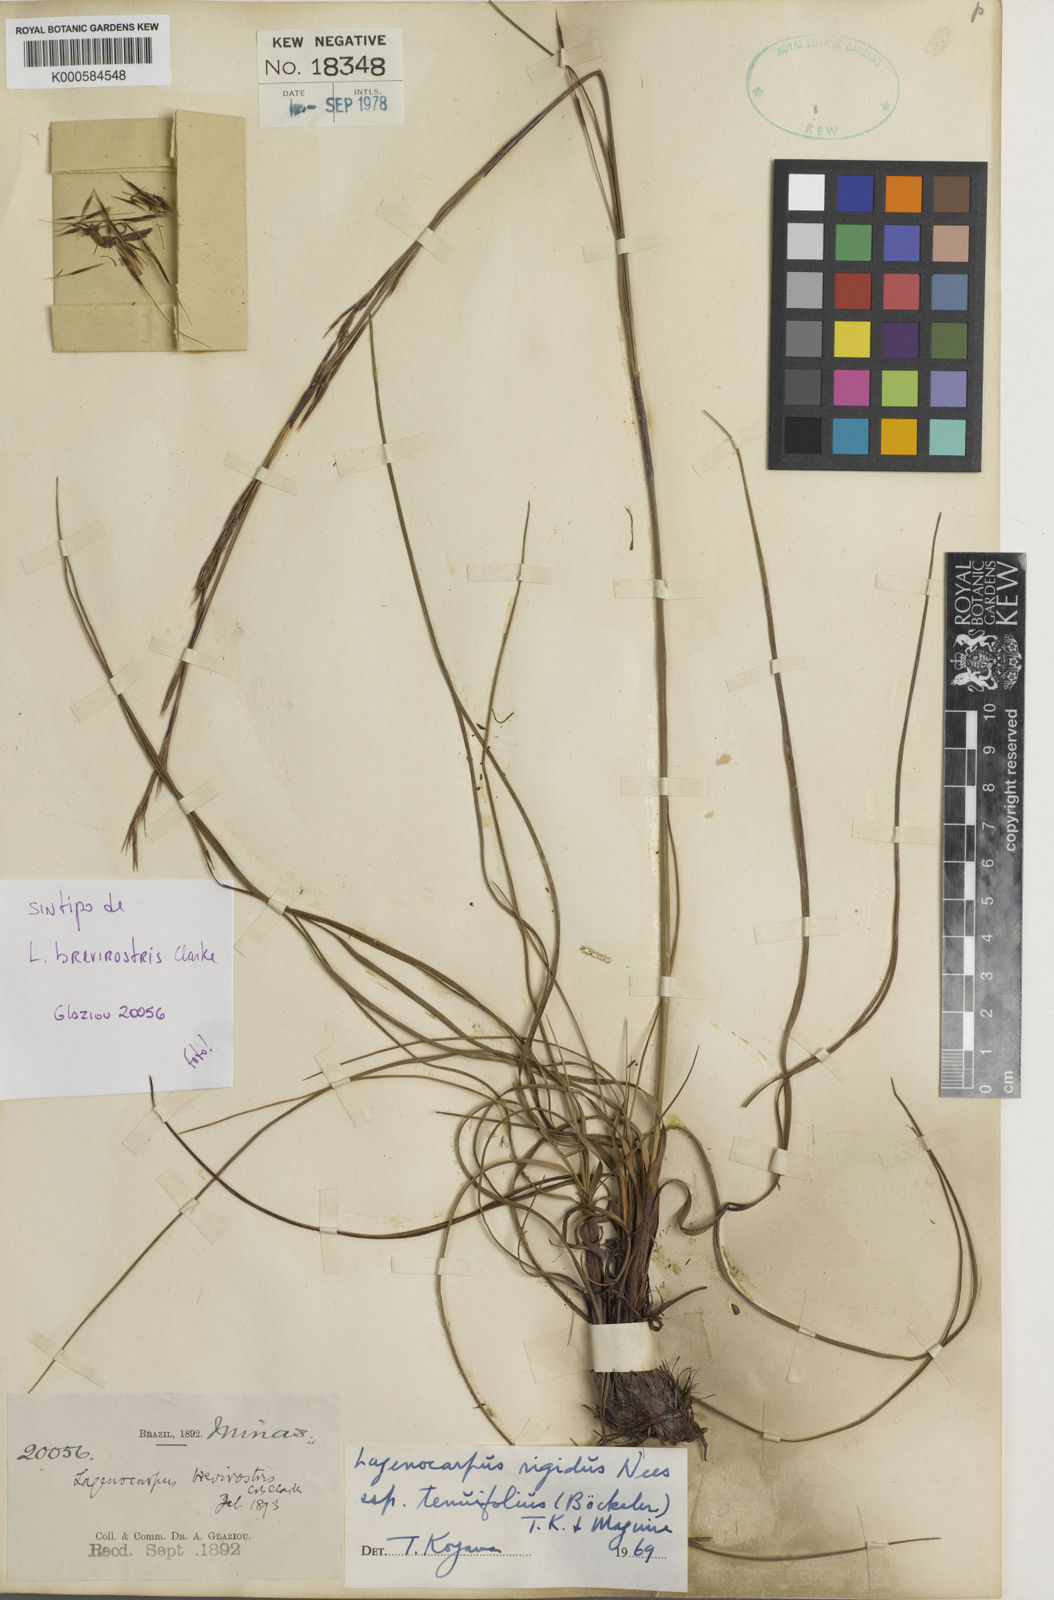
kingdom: Plantae
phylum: Tracheophyta
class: Liliopsida
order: Poales
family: Cyperaceae
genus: Lagenocarpus
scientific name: Lagenocarpus rigidus
